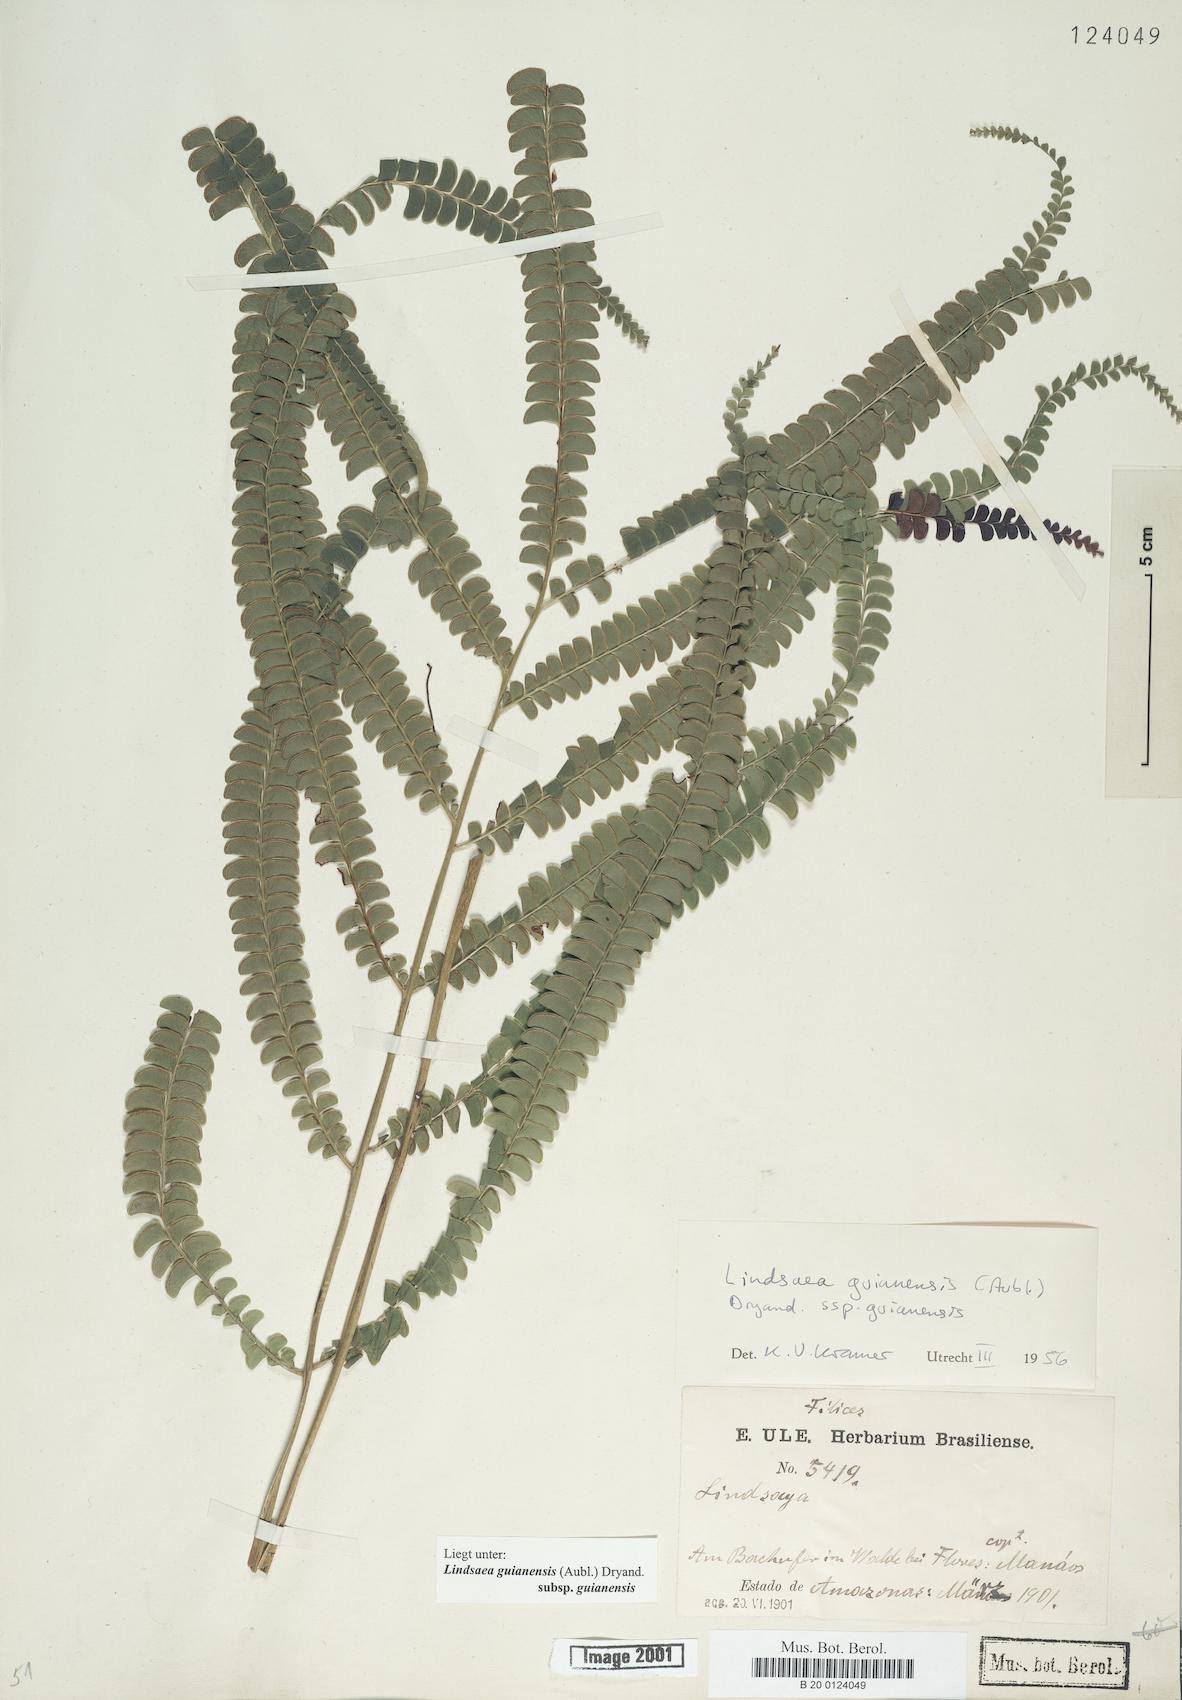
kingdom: Plantae
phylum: Tracheophyta
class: Polypodiopsida
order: Polypodiales
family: Lindsaeaceae
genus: Lindsaea
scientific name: Lindsaea guianensis
